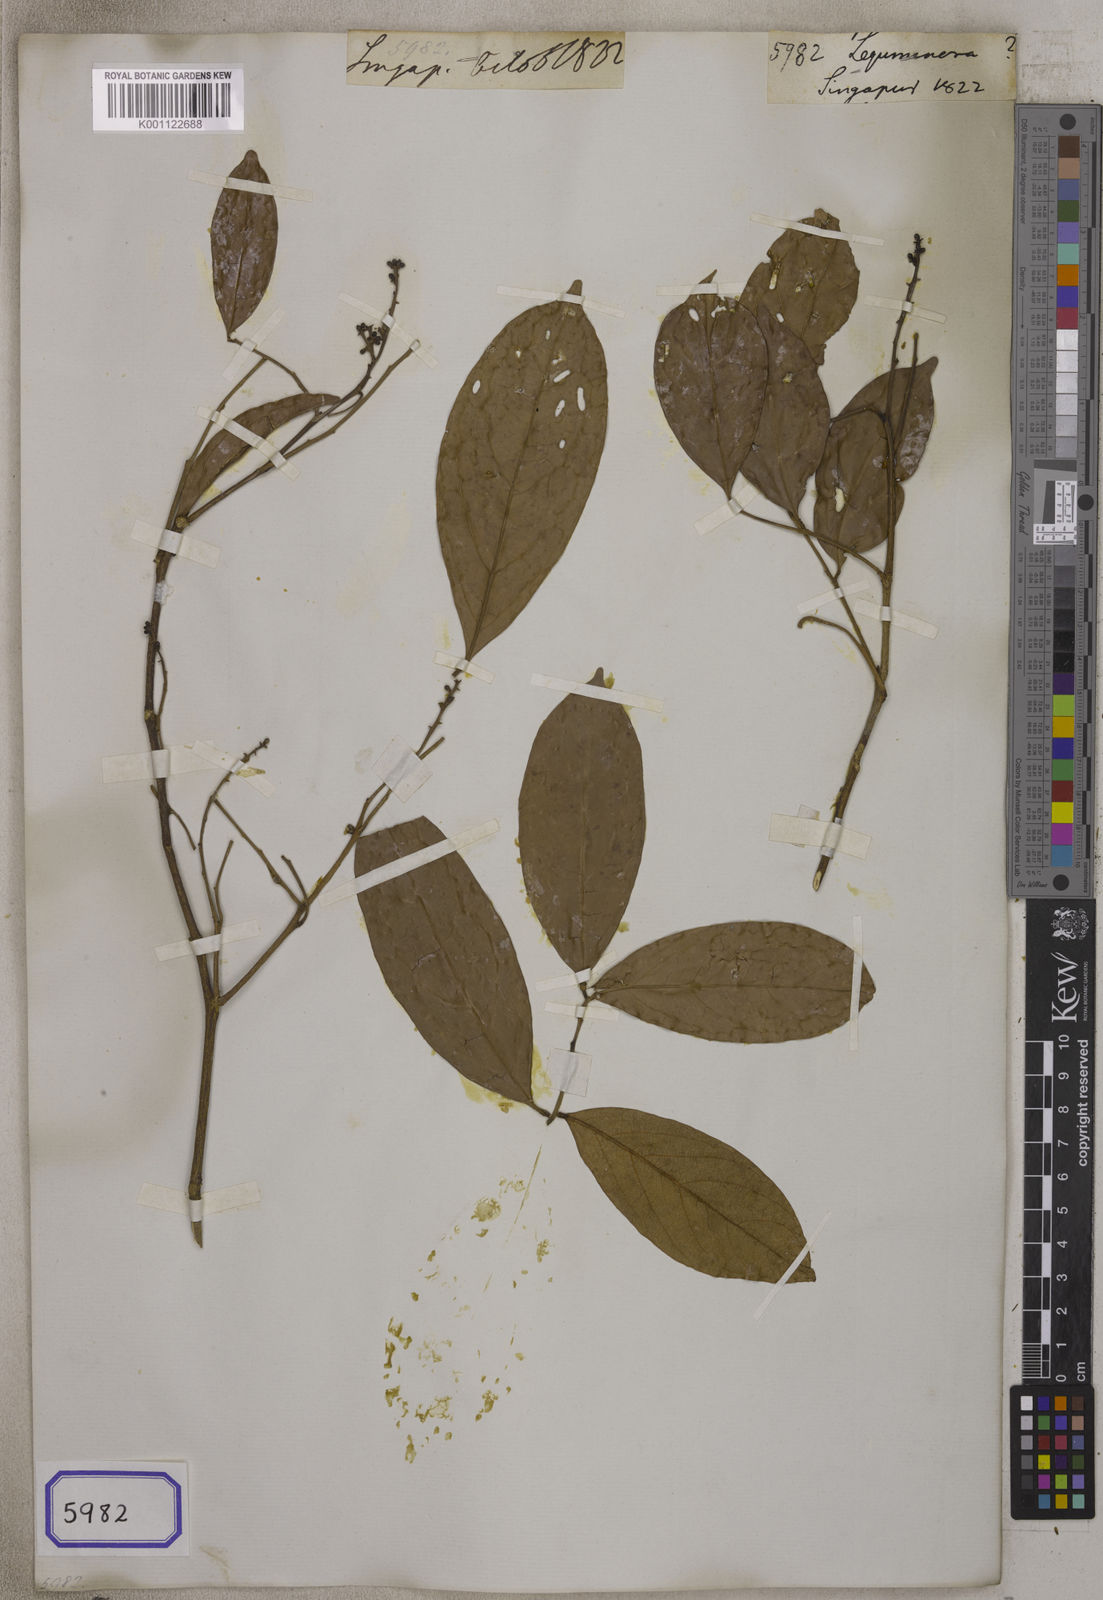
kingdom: Plantae
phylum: Tracheophyta
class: Magnoliopsida
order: Fabales
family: Fabaceae
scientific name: Fabaceae
